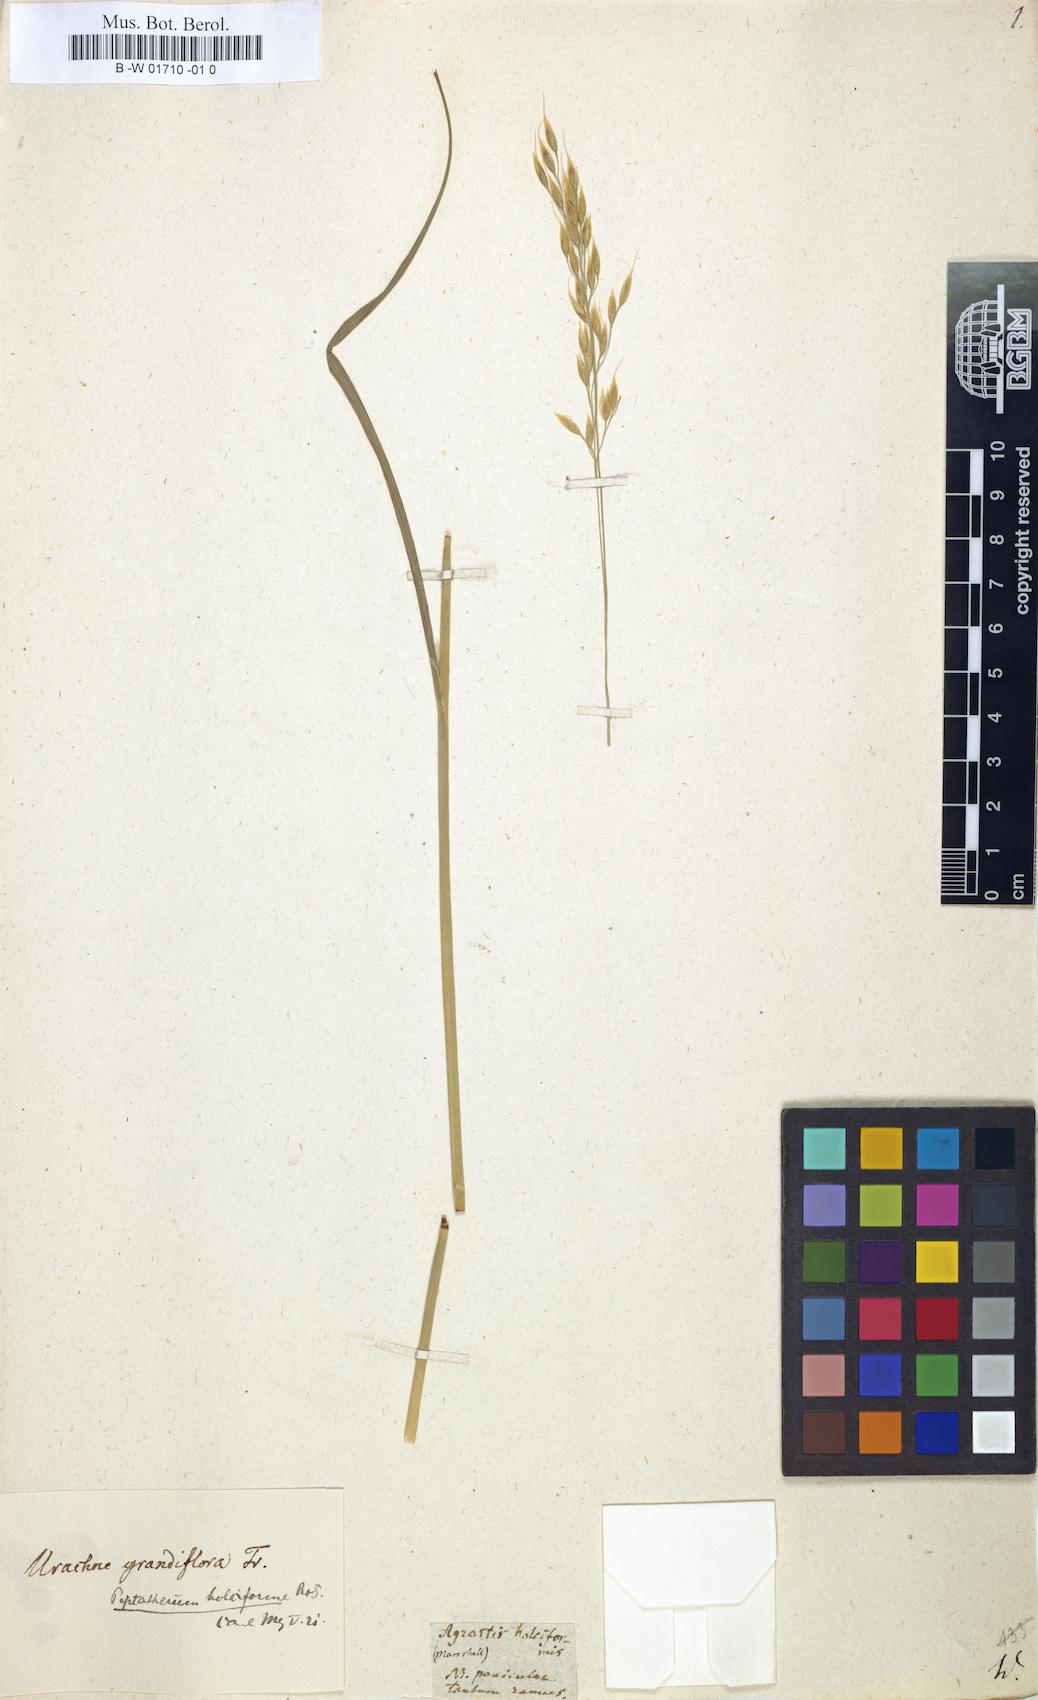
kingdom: Plantae
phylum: Tracheophyta
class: Liliopsida
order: Poales
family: Poaceae
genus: Piptatherum
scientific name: Piptatherum holciforme
